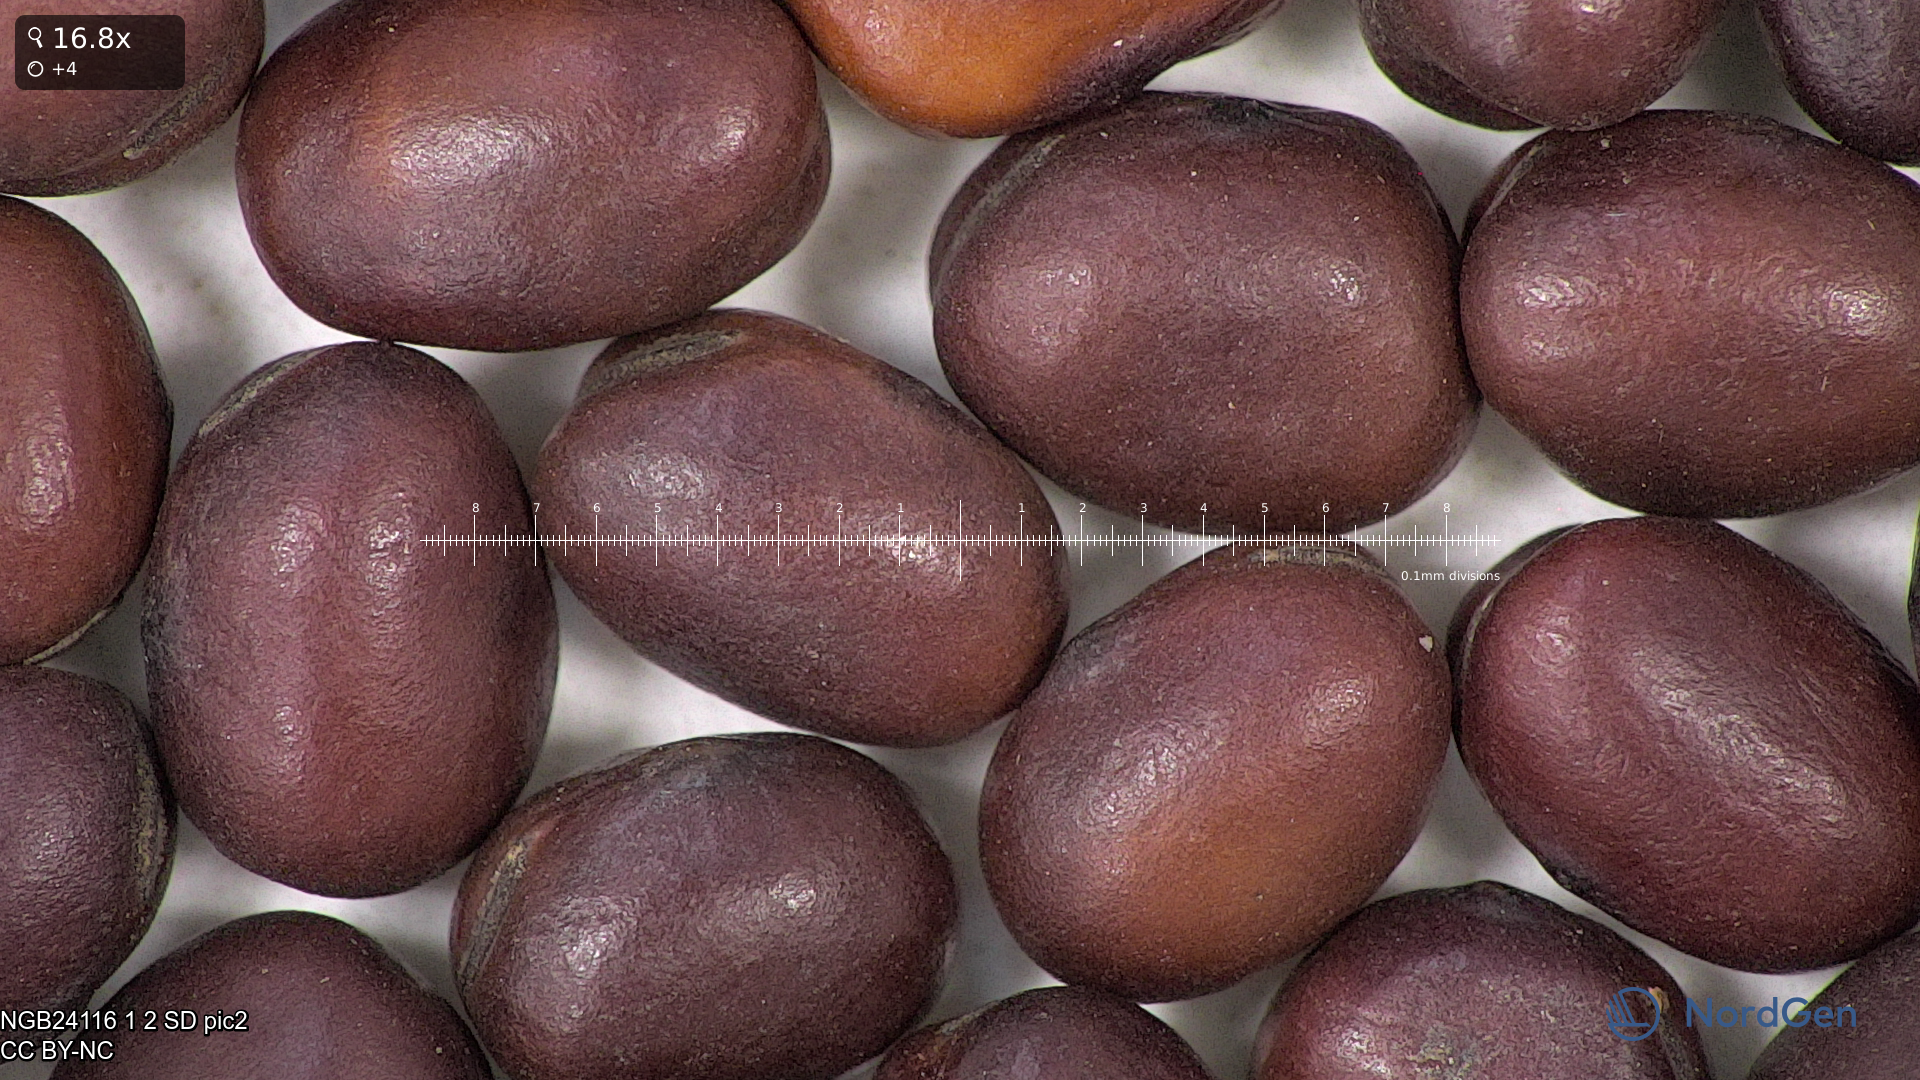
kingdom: Plantae
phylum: Tracheophyta
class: Magnoliopsida
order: Fabales
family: Fabaceae
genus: Vicia
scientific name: Vicia faba
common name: Broad bean
